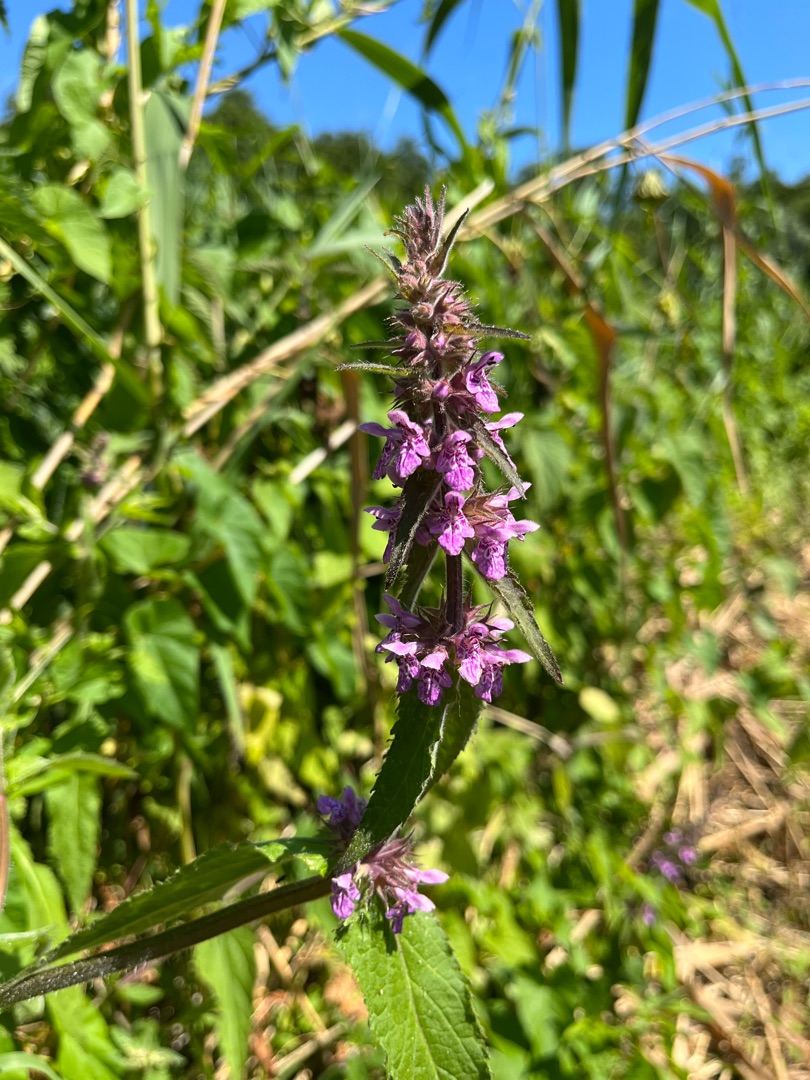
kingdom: Plantae
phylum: Tracheophyta
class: Magnoliopsida
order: Lamiales
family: Lamiaceae
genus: Stachys
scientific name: Stachys palustris
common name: Kær-galtetand
